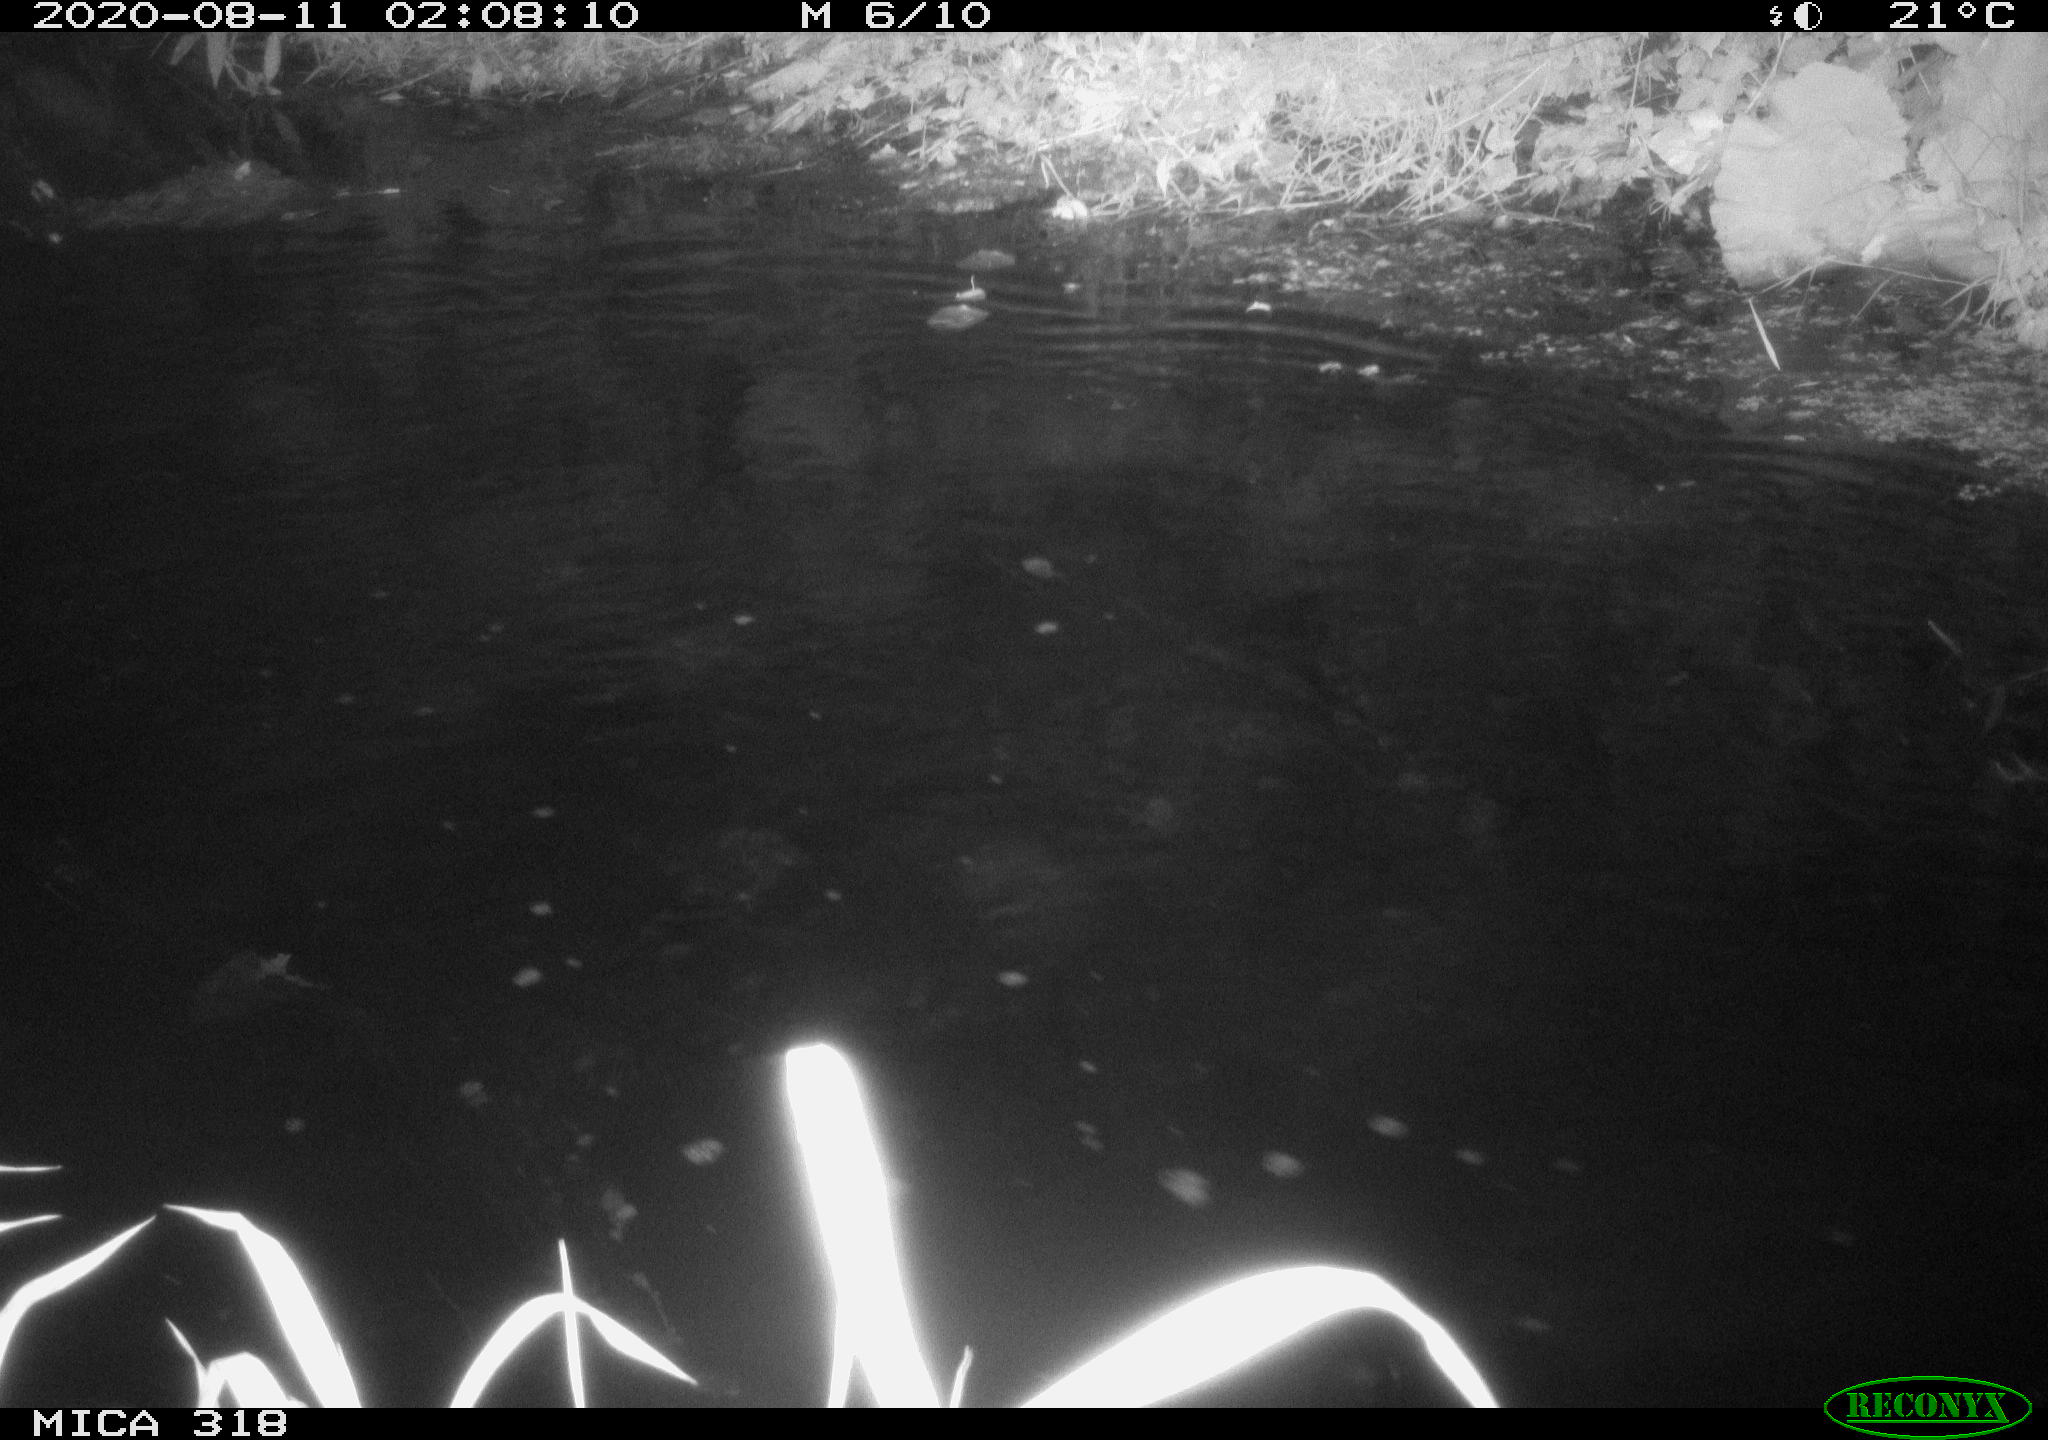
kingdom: Animalia
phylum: Chordata
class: Aves
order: Gruiformes
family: Rallidae
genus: Gallinula
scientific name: Gallinula chloropus
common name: Common moorhen
